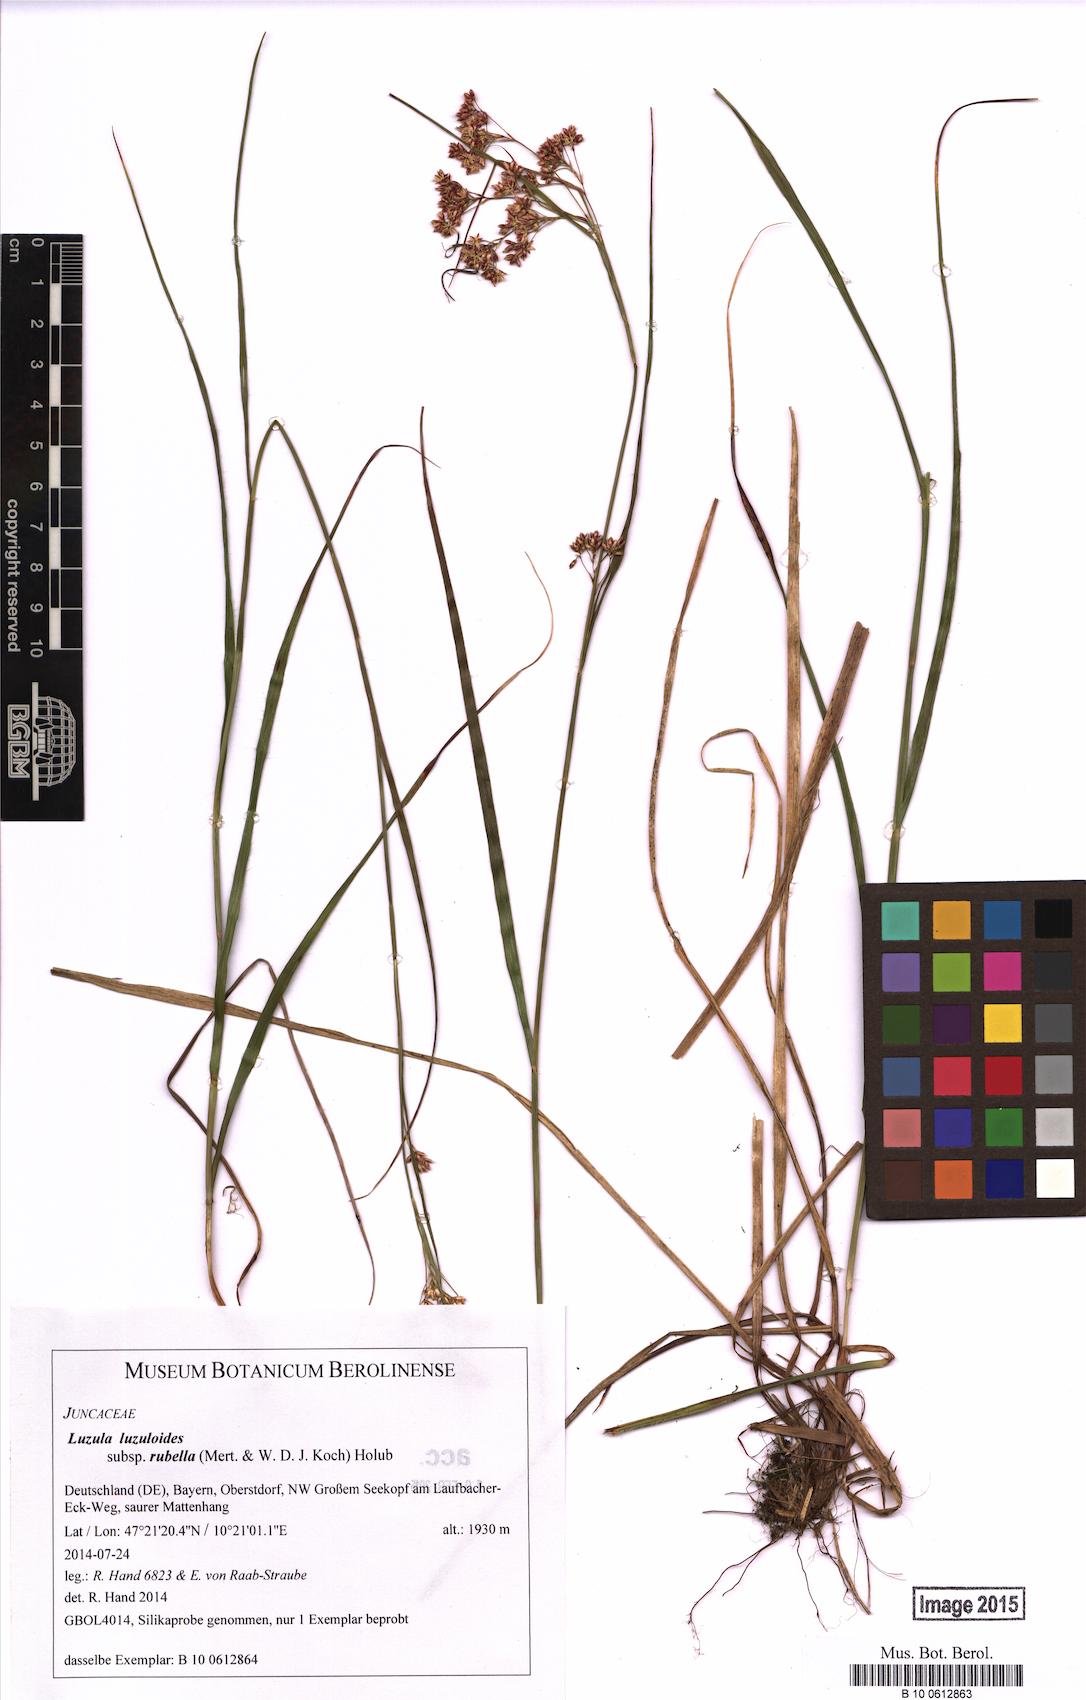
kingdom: Plantae
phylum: Tracheophyta
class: Liliopsida
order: Poales
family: Juncaceae
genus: Luzula
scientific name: Luzula luzuloides
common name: White wood-rush
